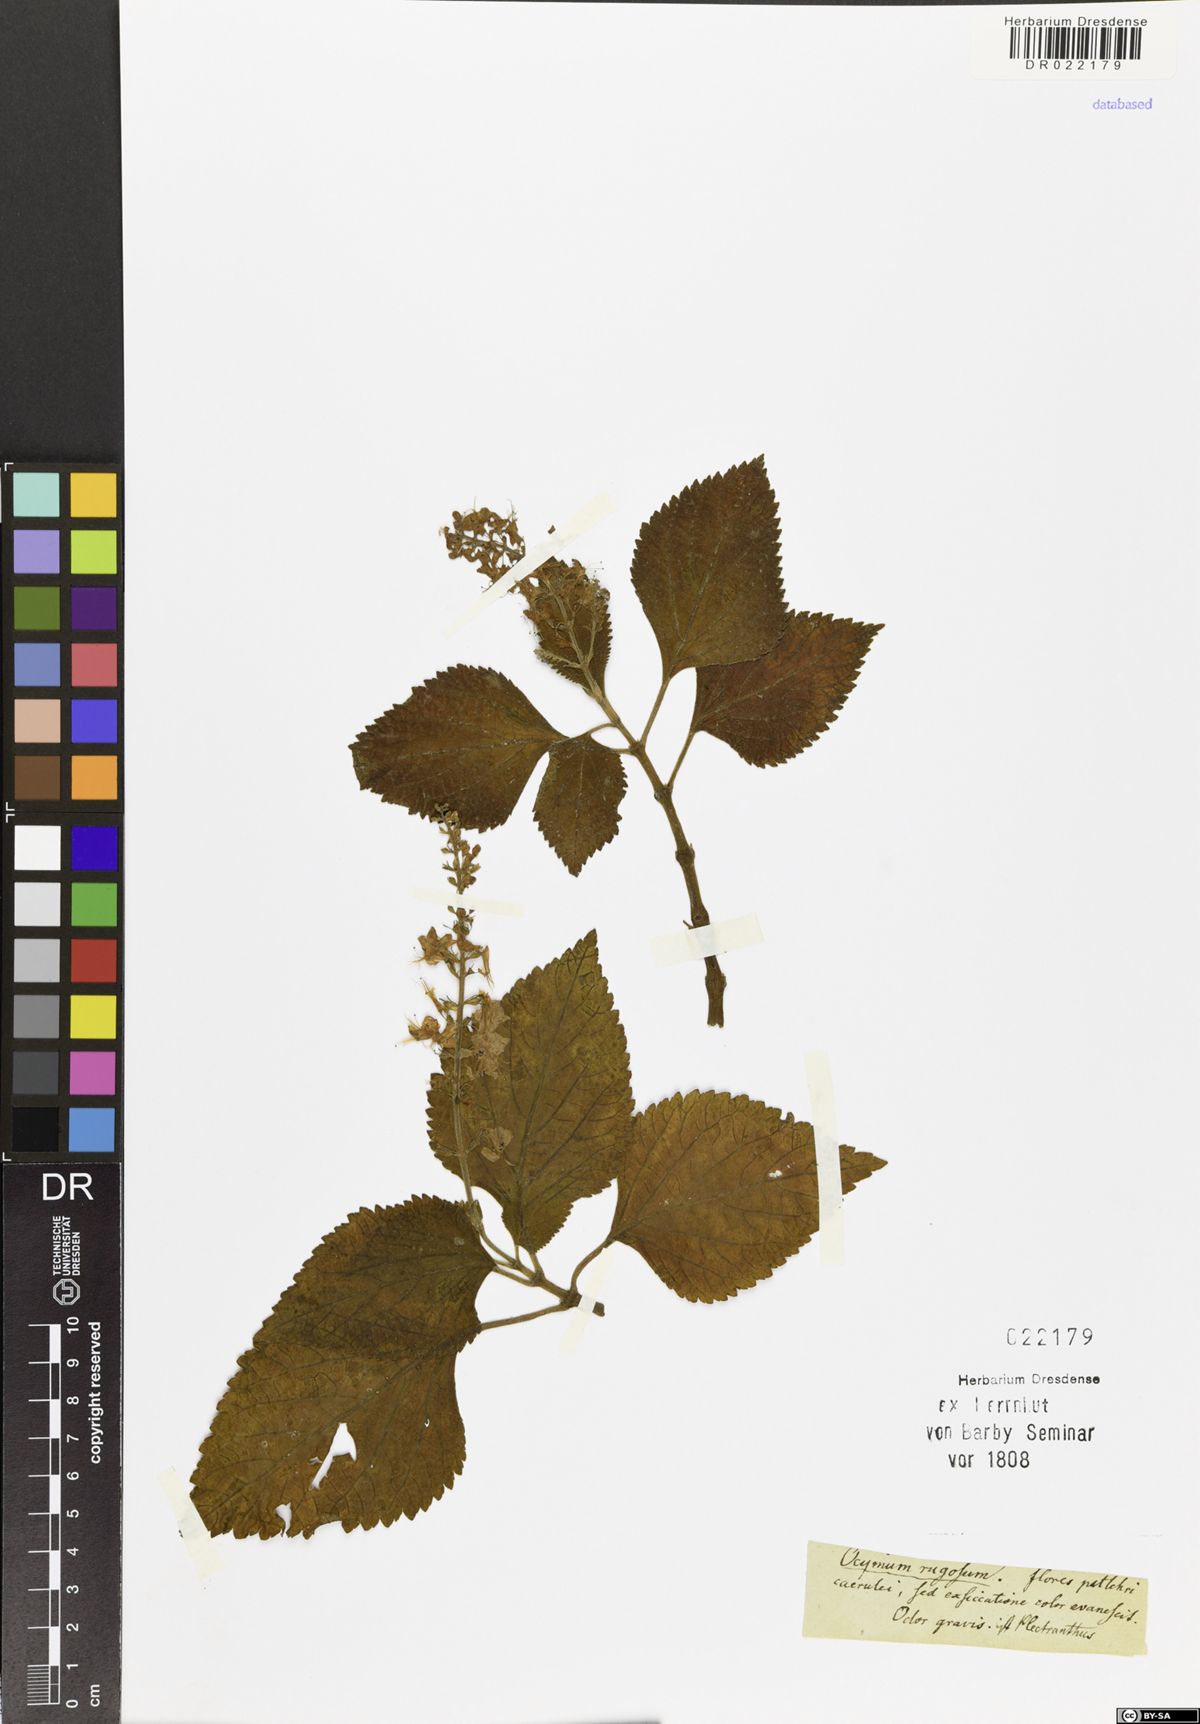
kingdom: Plantae
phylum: Tracheophyta
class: Magnoliopsida
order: Lamiales
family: Lamiaceae
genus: Isodon
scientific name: Isodon
